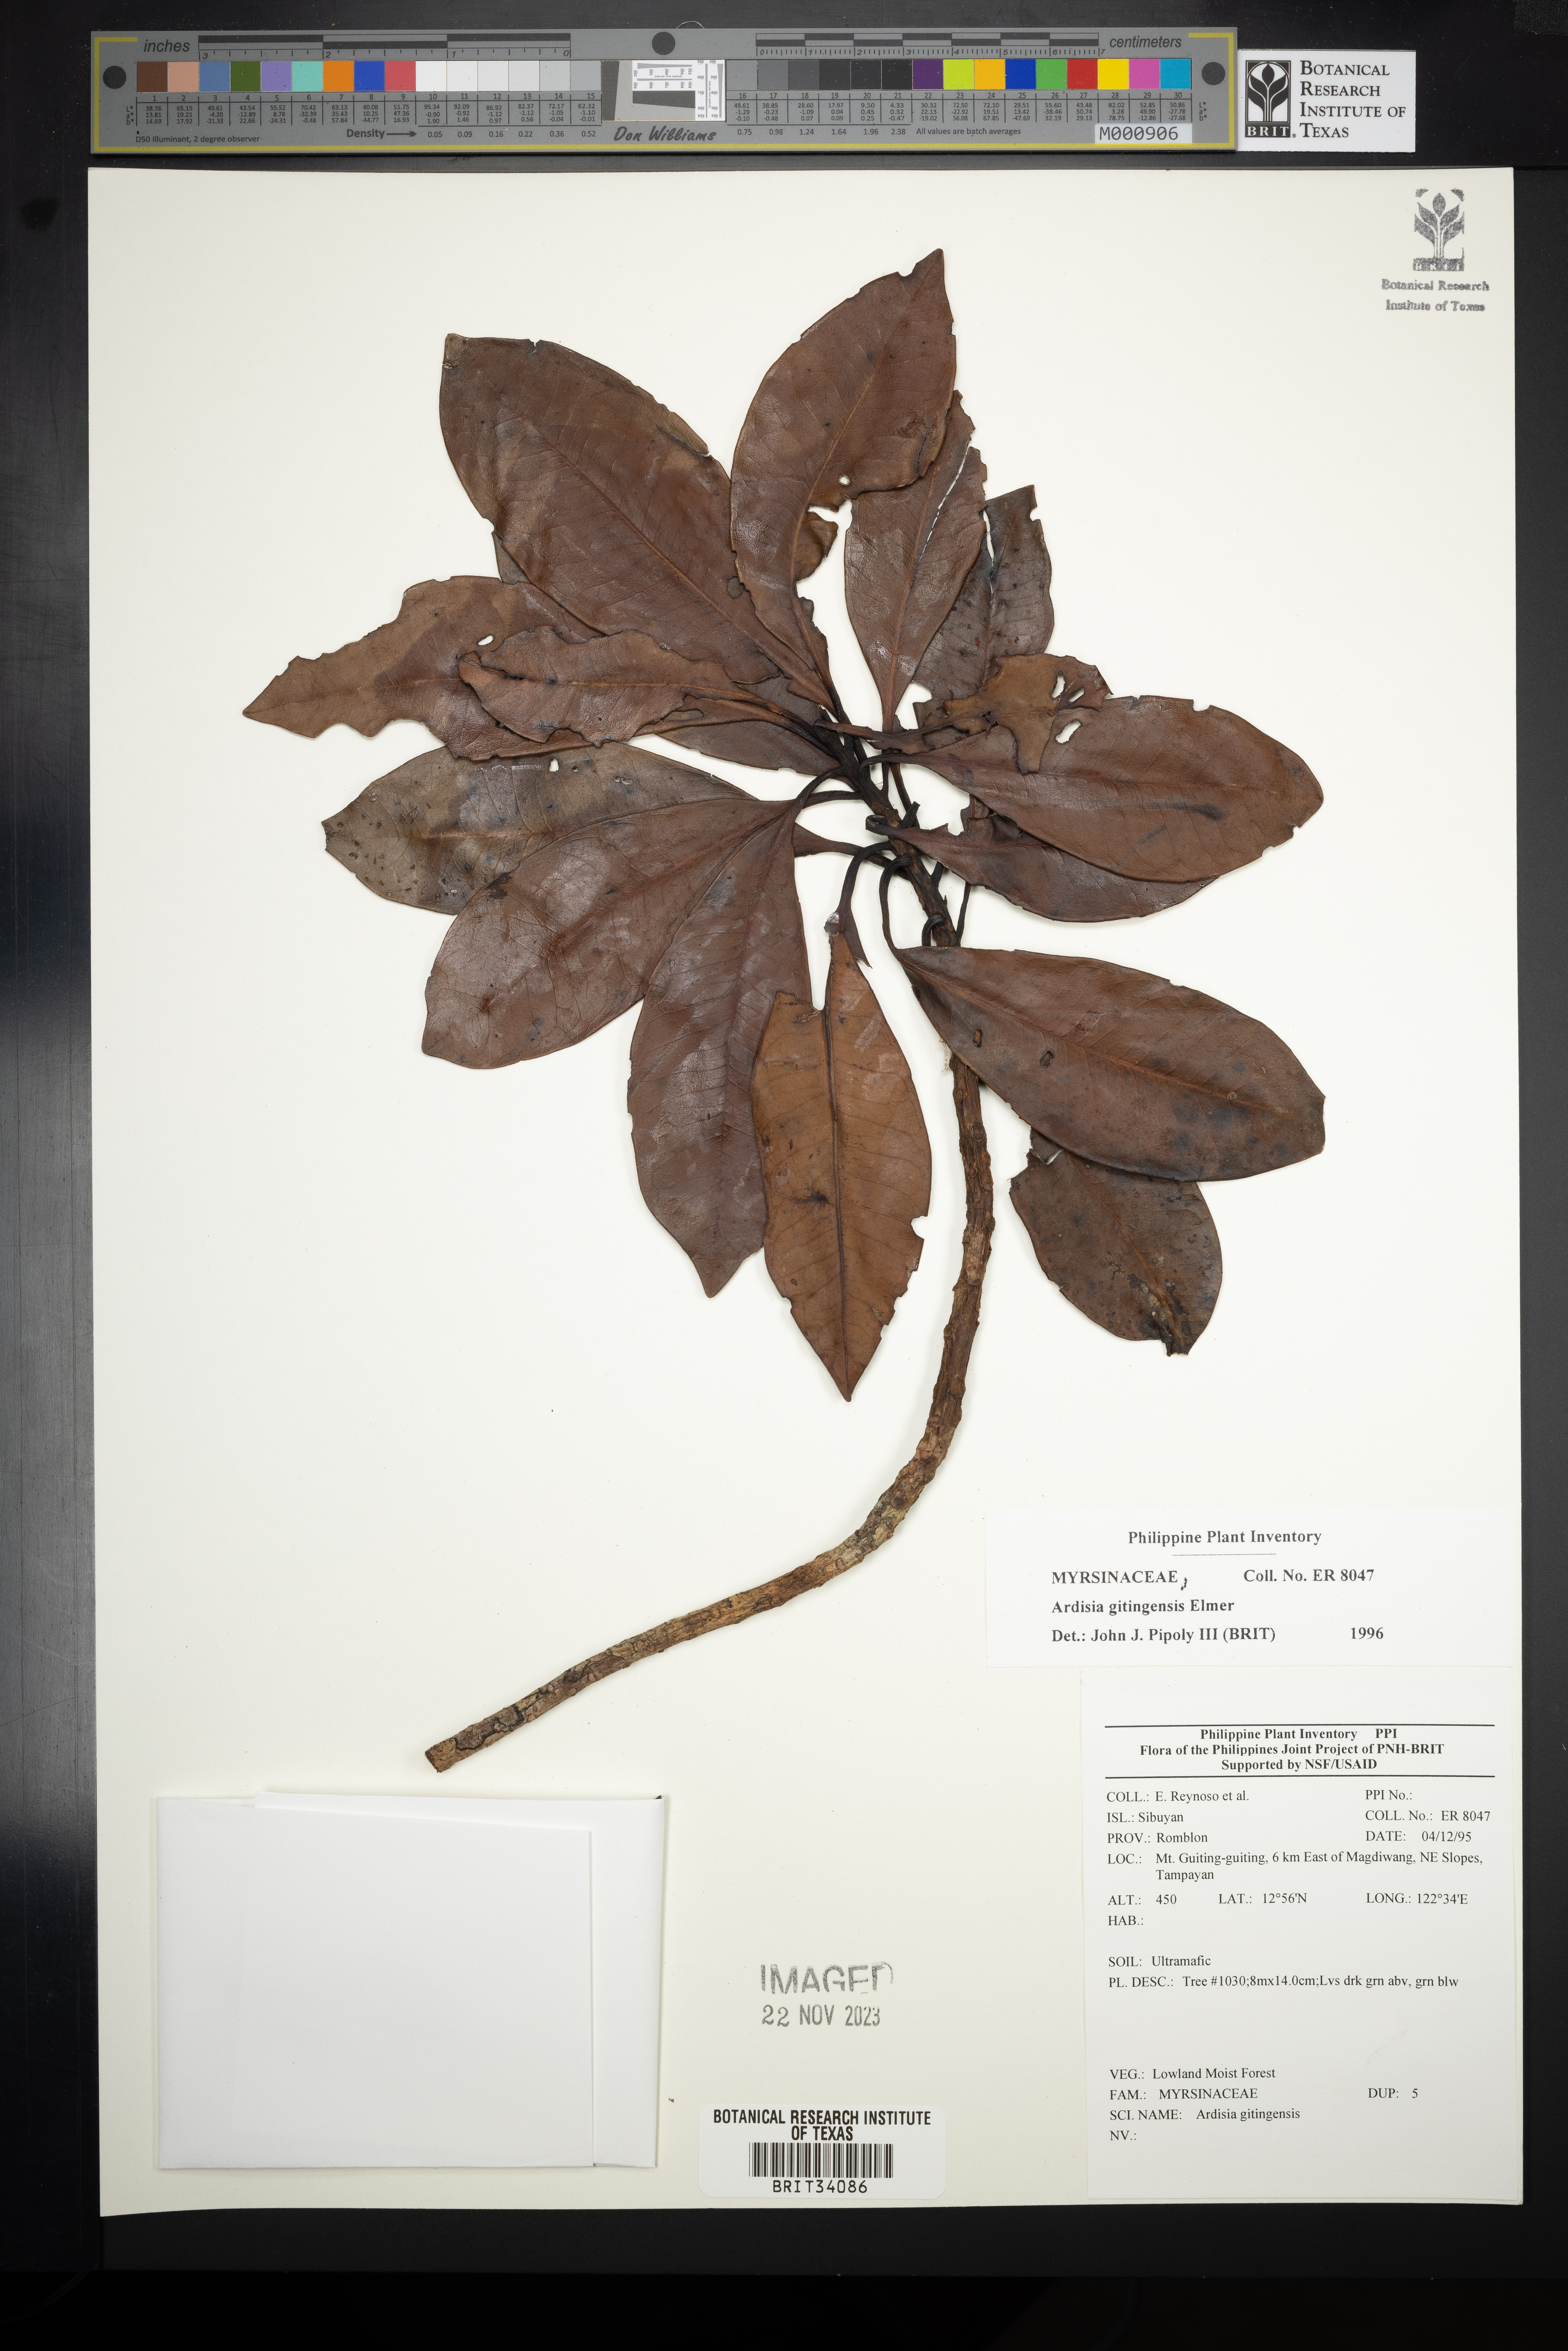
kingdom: Plantae
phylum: Tracheophyta
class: Magnoliopsida
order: Ericales
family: Primulaceae
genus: Ardisia
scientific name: Ardisia darlingii
